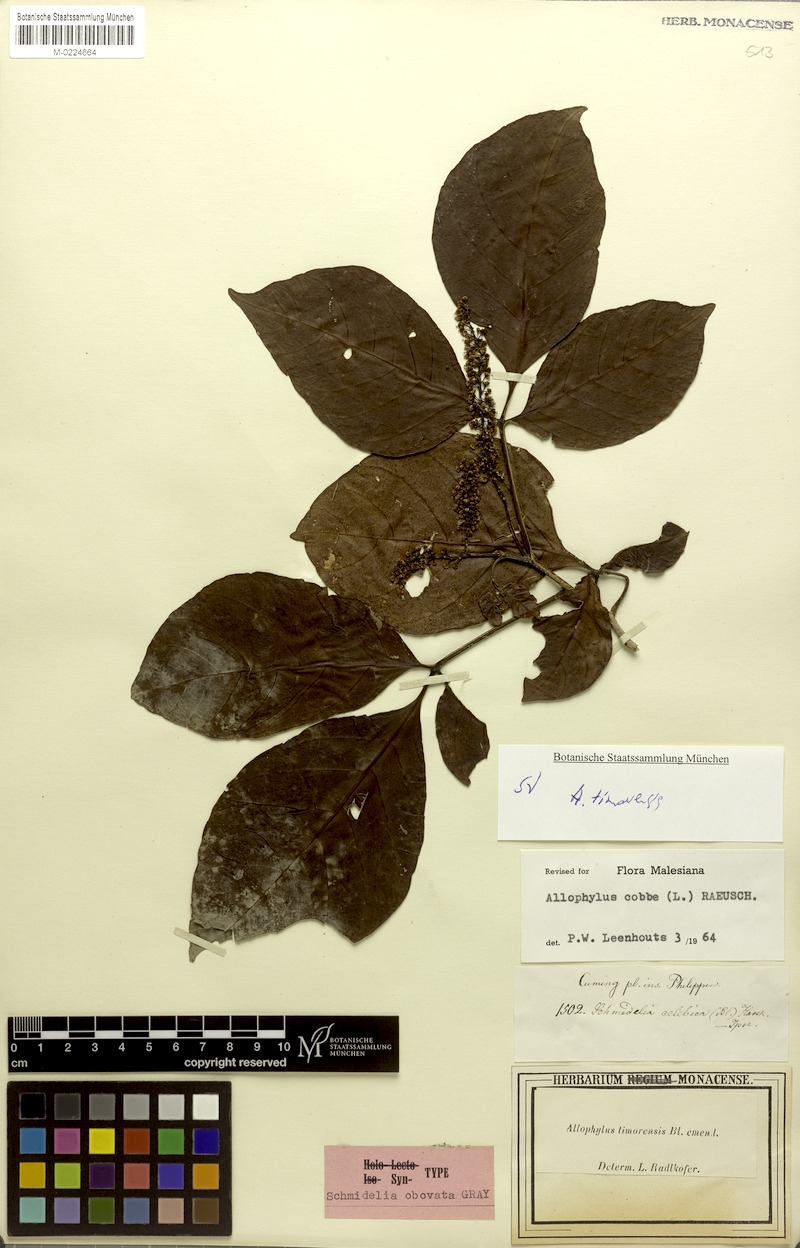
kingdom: Plantae
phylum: Tracheophyta
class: Magnoliopsida
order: Sapindales
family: Sapindaceae
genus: Allophylus
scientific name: Allophylus timorensis
